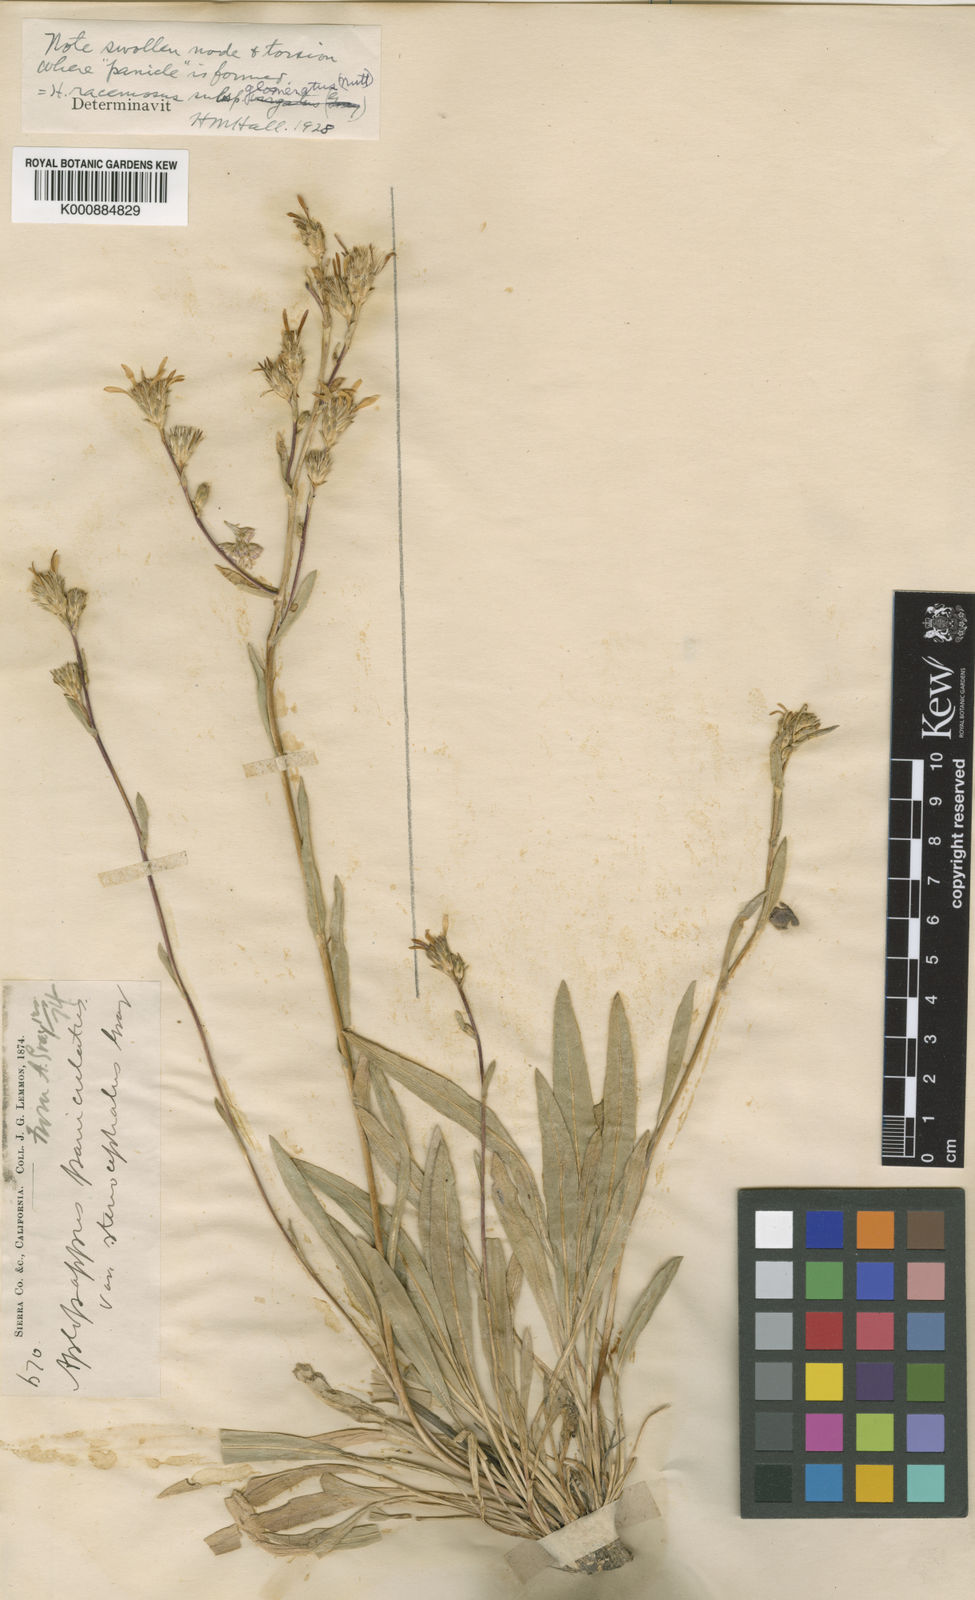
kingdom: Plantae
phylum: Tracheophyta
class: Magnoliopsida
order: Asterales
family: Asteraceae
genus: Pyrrocoma
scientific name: Pyrrocoma racemosa
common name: Clustered goldenweed
